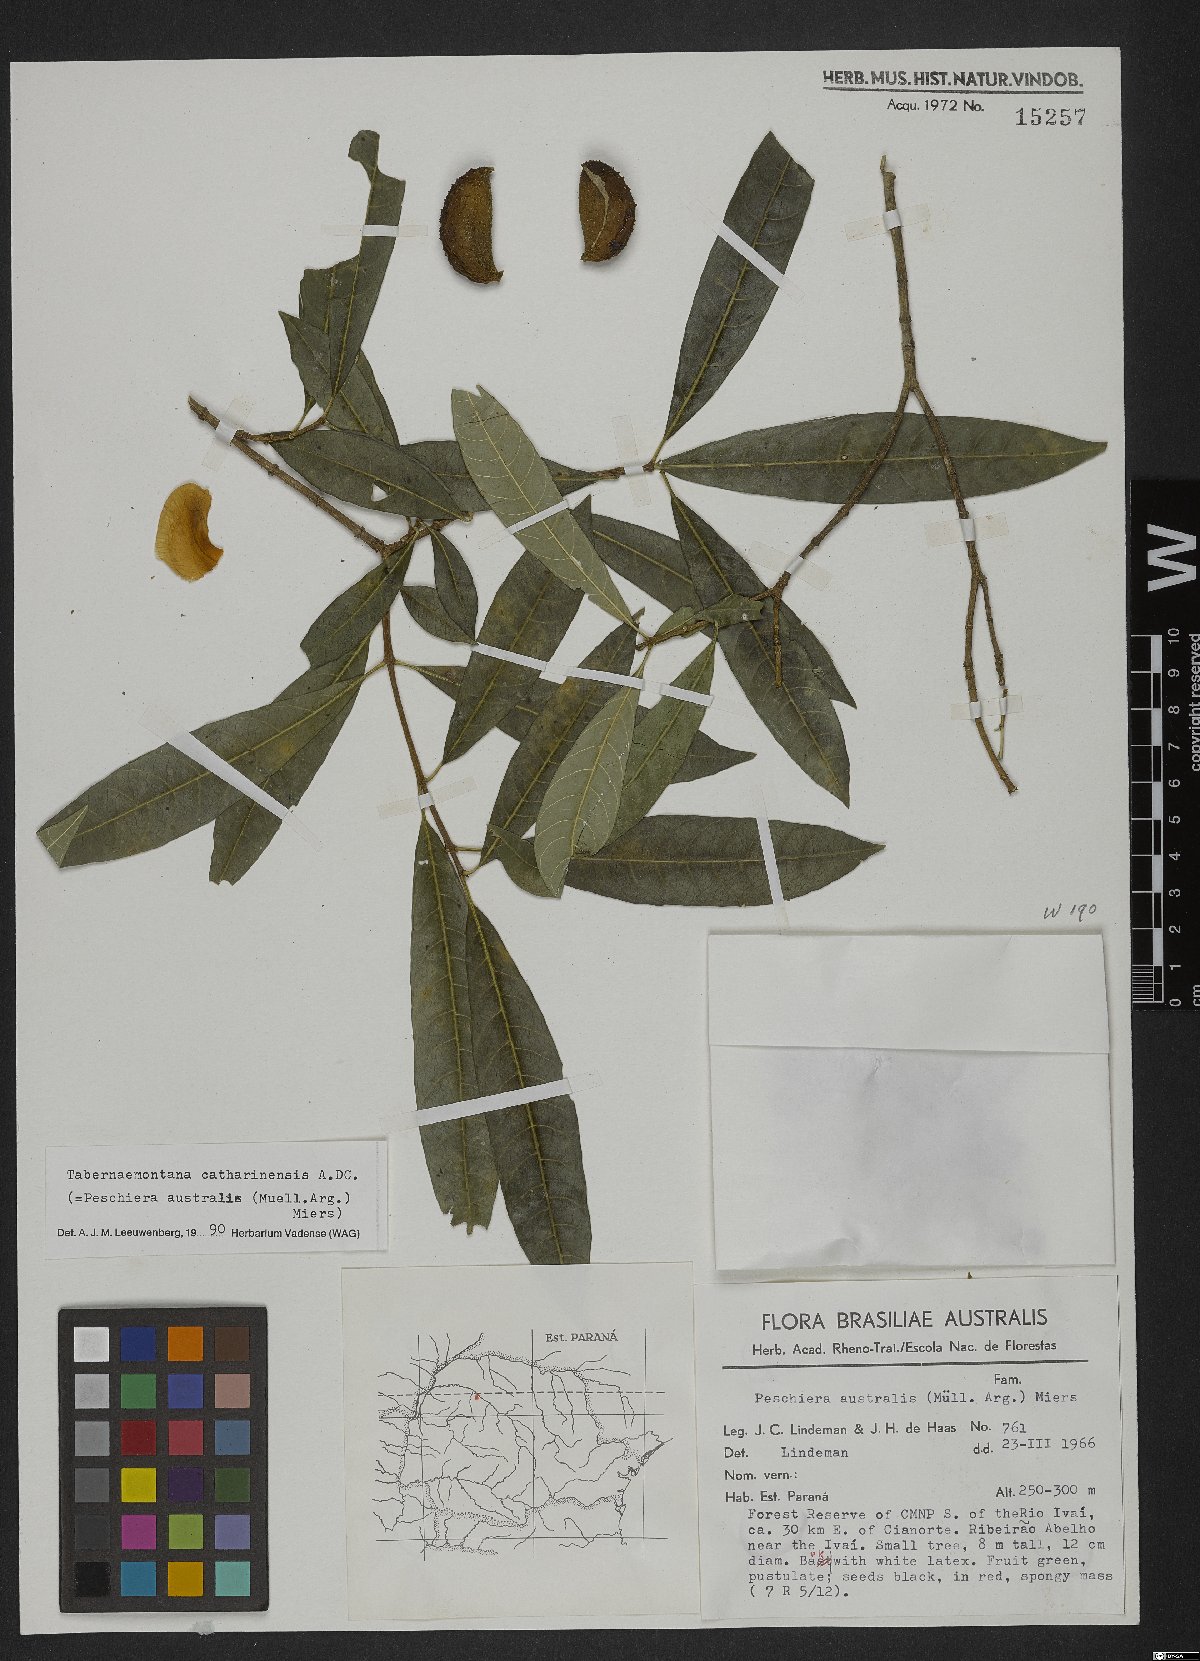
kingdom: Plantae
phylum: Tracheophyta
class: Magnoliopsida
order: Gentianales
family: Apocynaceae
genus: Tabernaemontana
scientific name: Tabernaemontana catharinensis
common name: Pinwheel-flower
